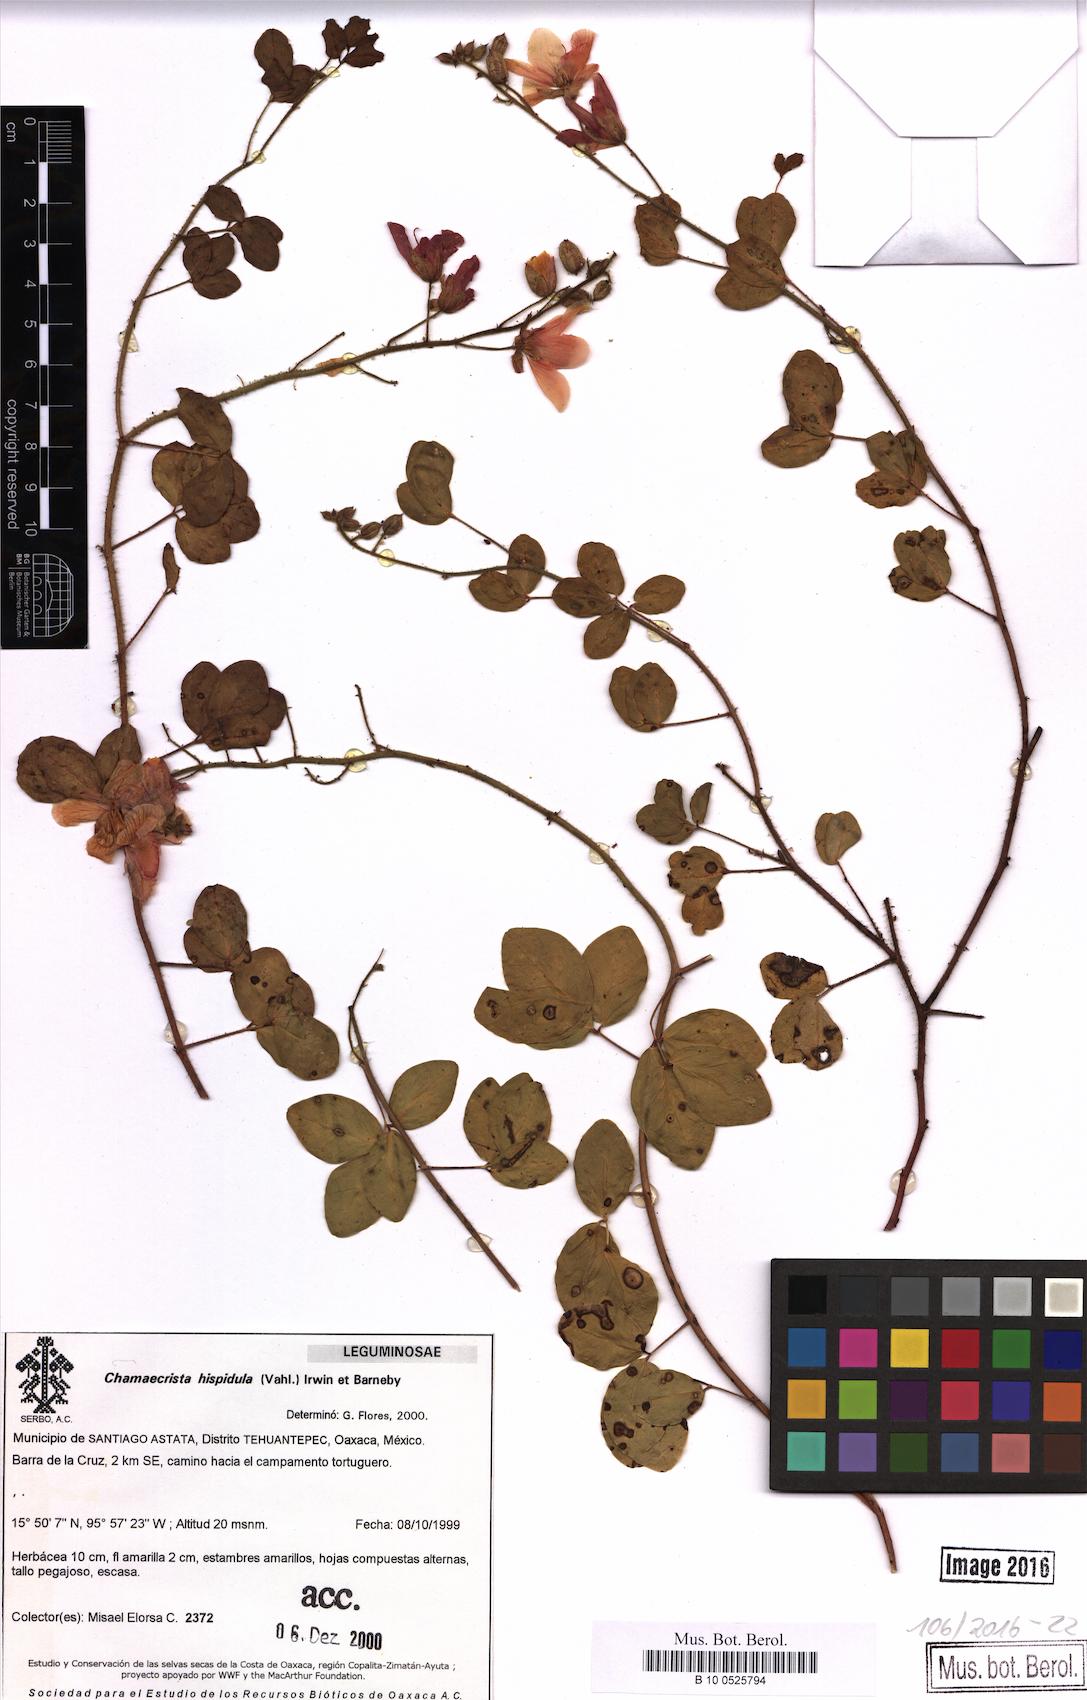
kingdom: Plantae
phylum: Tracheophyta
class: Magnoliopsida
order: Fabales
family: Fabaceae
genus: Chamaecrista
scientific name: Chamaecrista hispidula
